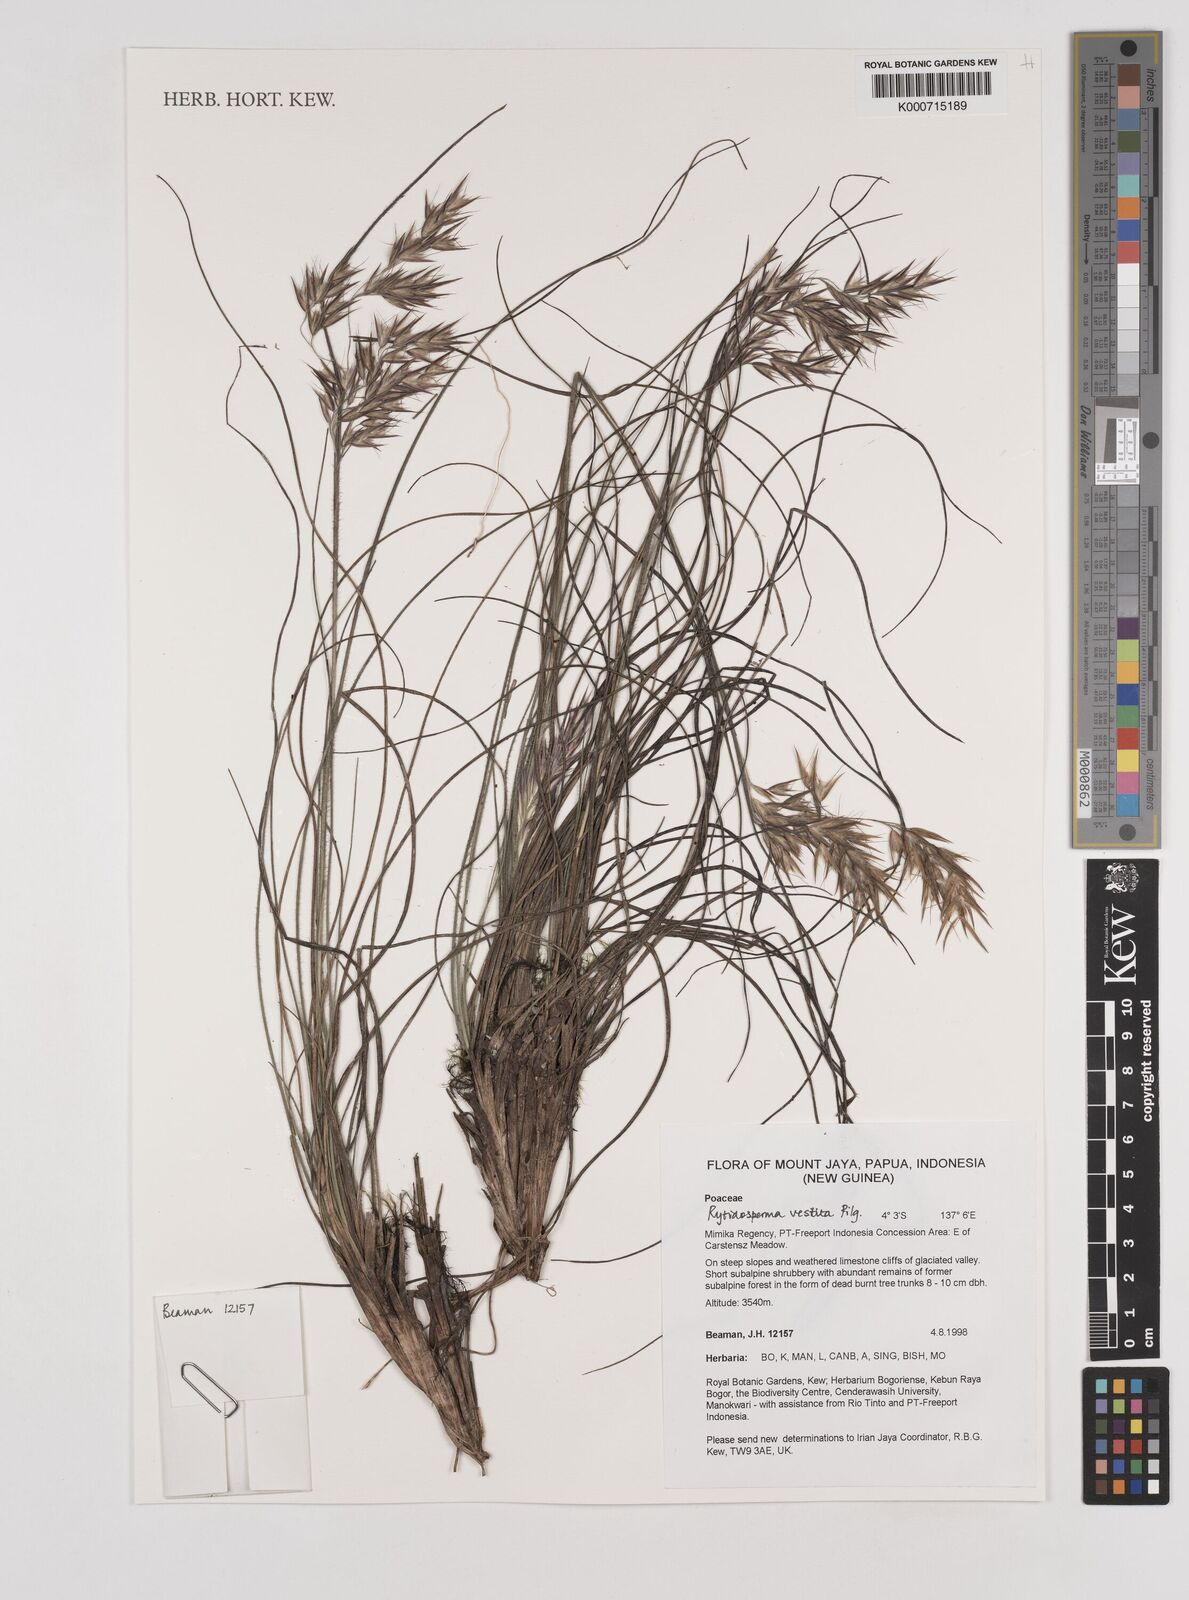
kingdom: Plantae
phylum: Tracheophyta
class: Liliopsida
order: Poales
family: Poaceae
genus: Rytidosperma
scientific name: Rytidosperma vestitum
